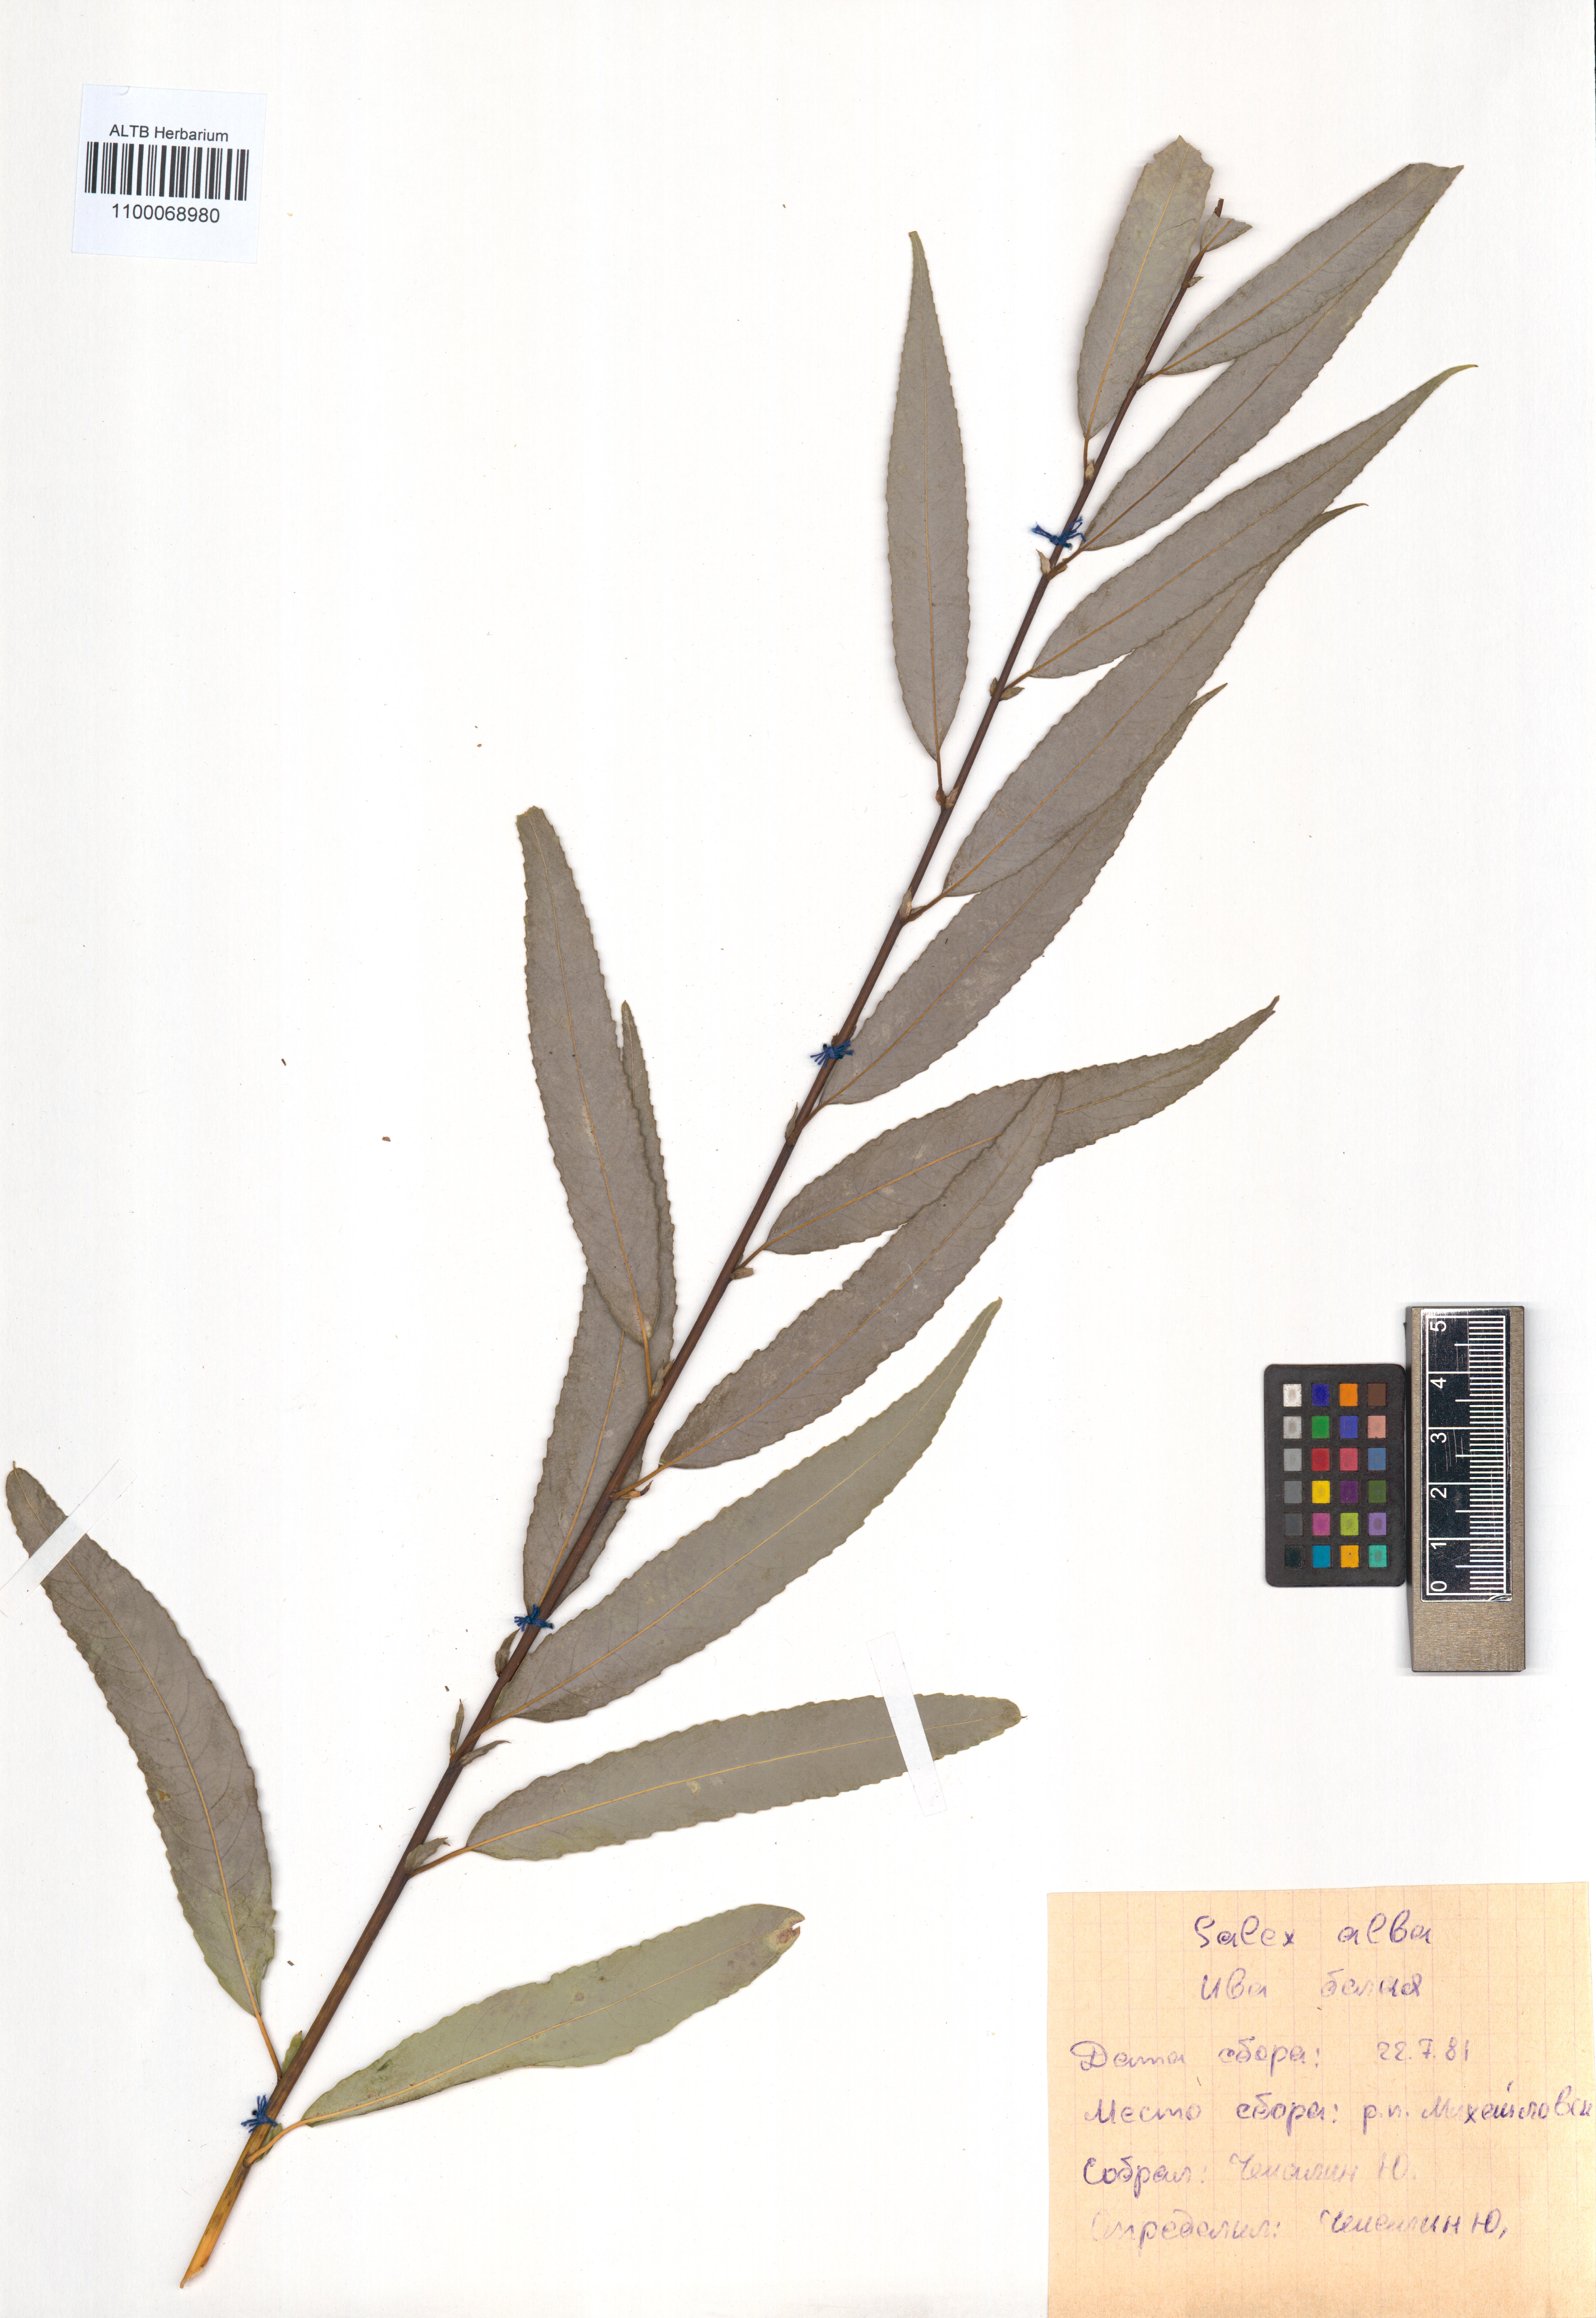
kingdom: Plantae
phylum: Tracheophyta
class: Magnoliopsida
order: Malpighiales
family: Salicaceae
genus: Salix
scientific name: Salix alba
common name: White willow
